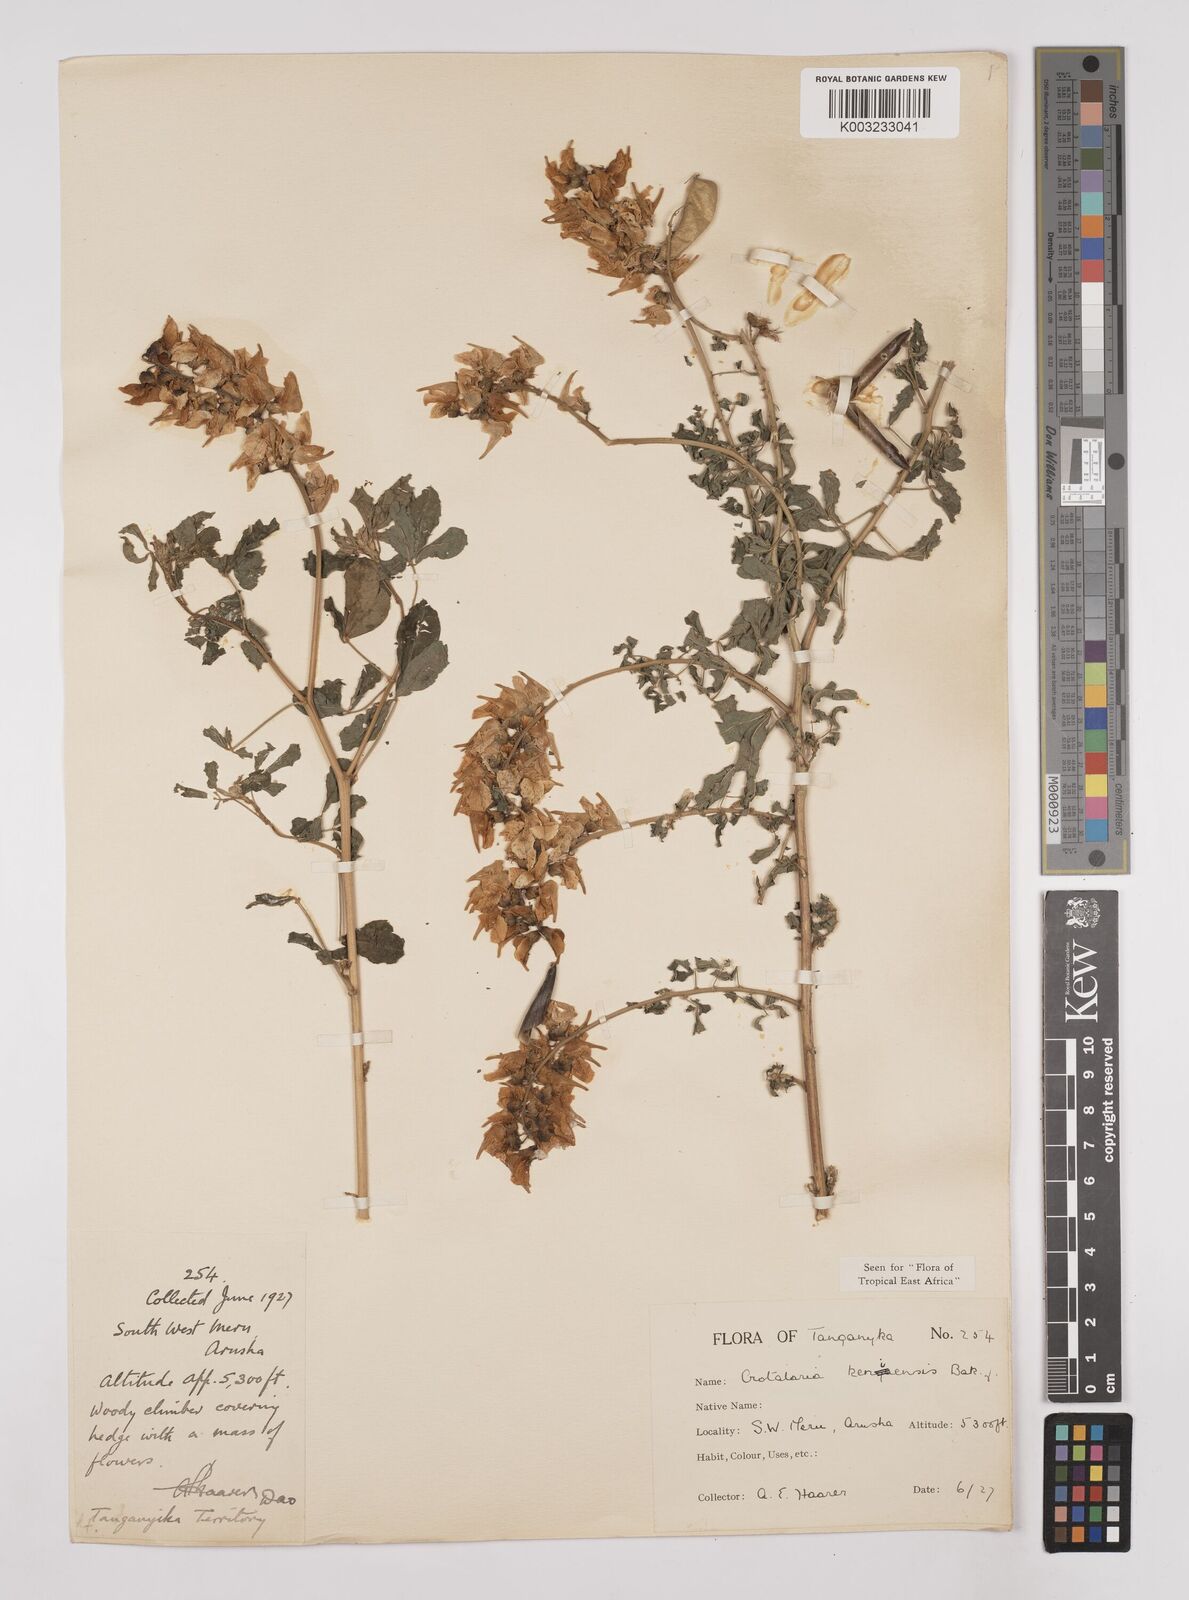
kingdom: Plantae
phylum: Tracheophyta
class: Magnoliopsida
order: Fabales
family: Fabaceae
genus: Crotalaria
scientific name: Crotalaria keniensis
